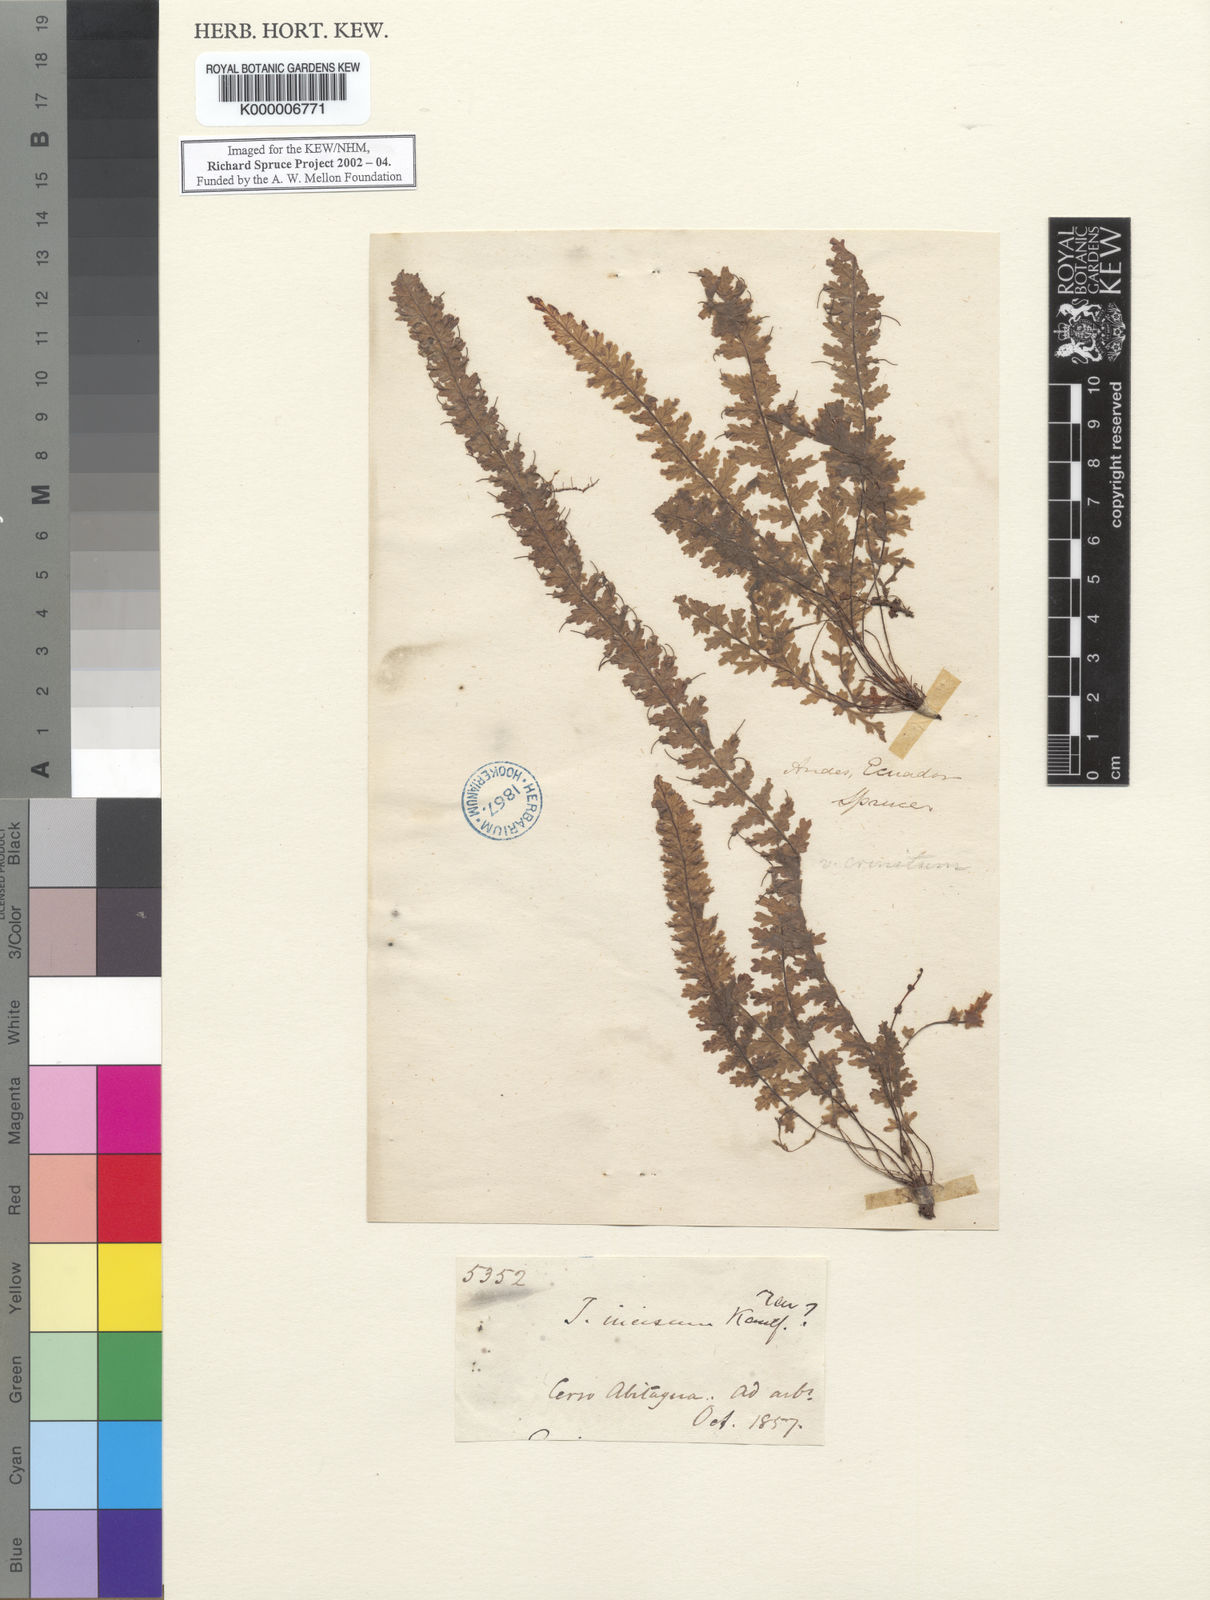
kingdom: Plantae
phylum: Tracheophyta
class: Polypodiopsida
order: Hymenophyllales
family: Hymenophyllaceae
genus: Trichomanes
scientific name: Trichomanes
